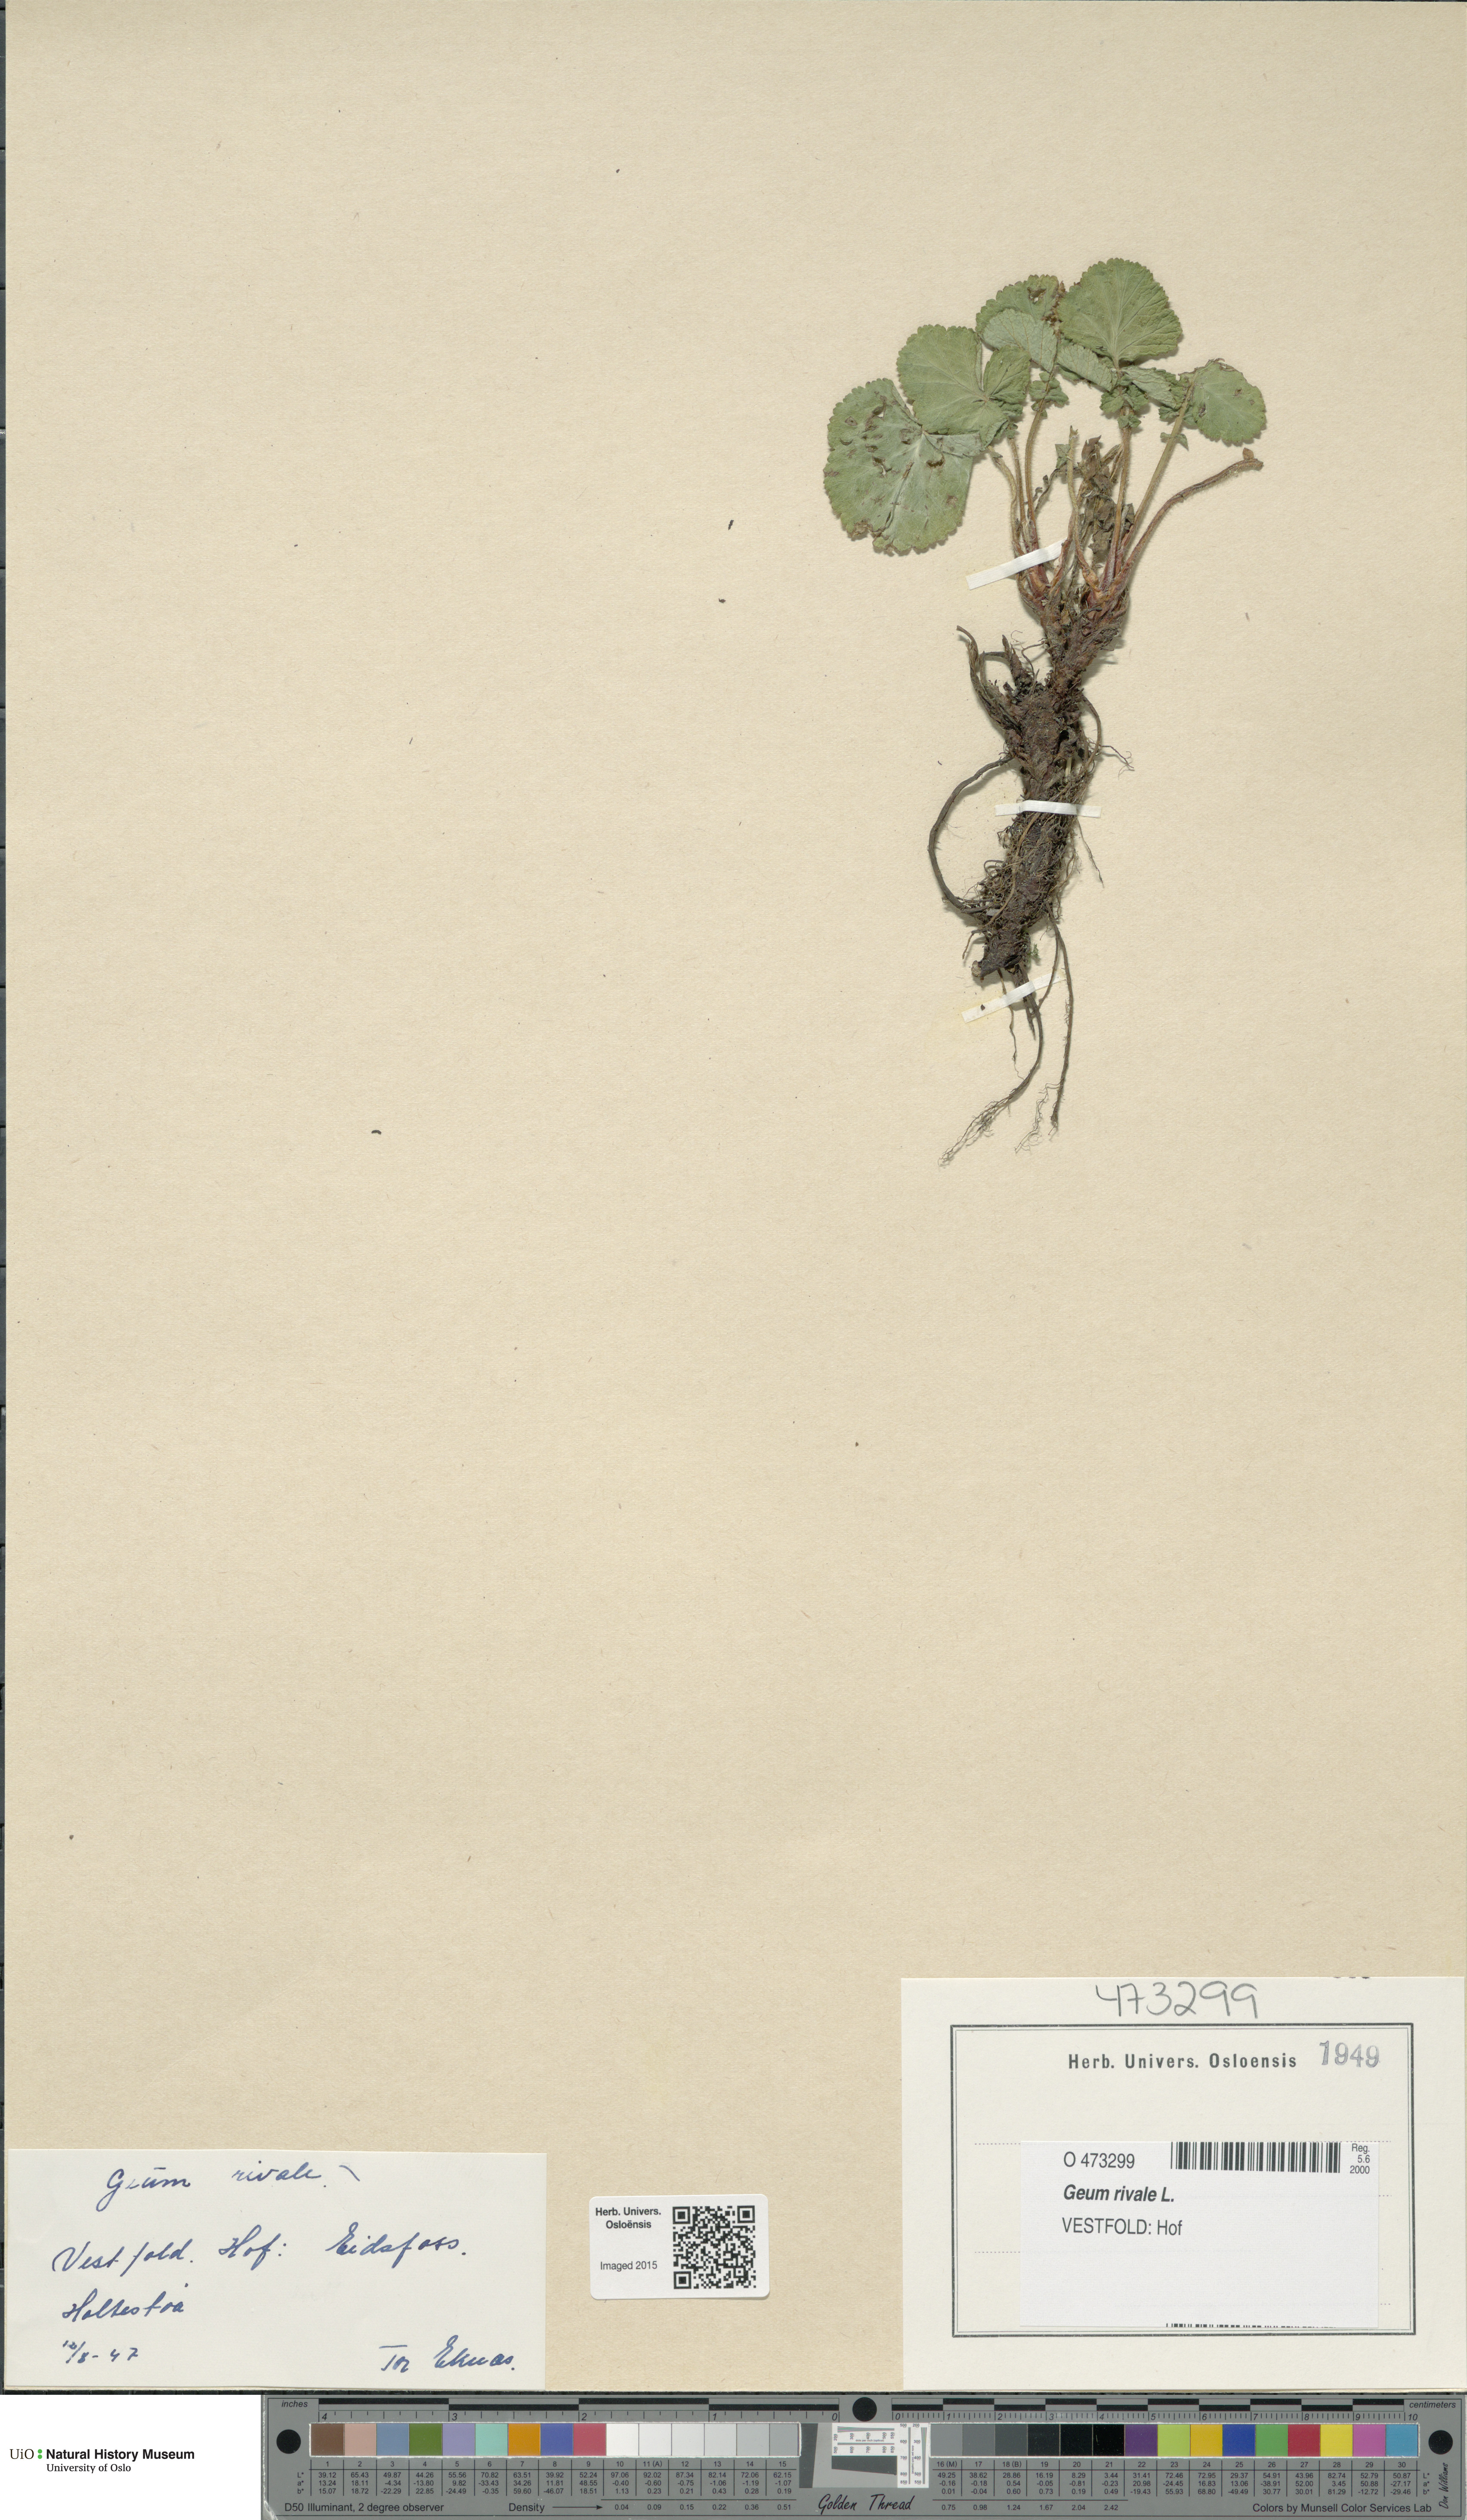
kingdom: Plantae
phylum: Tracheophyta
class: Magnoliopsida
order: Rosales
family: Rosaceae
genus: Geum
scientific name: Geum rivale
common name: Water avens
